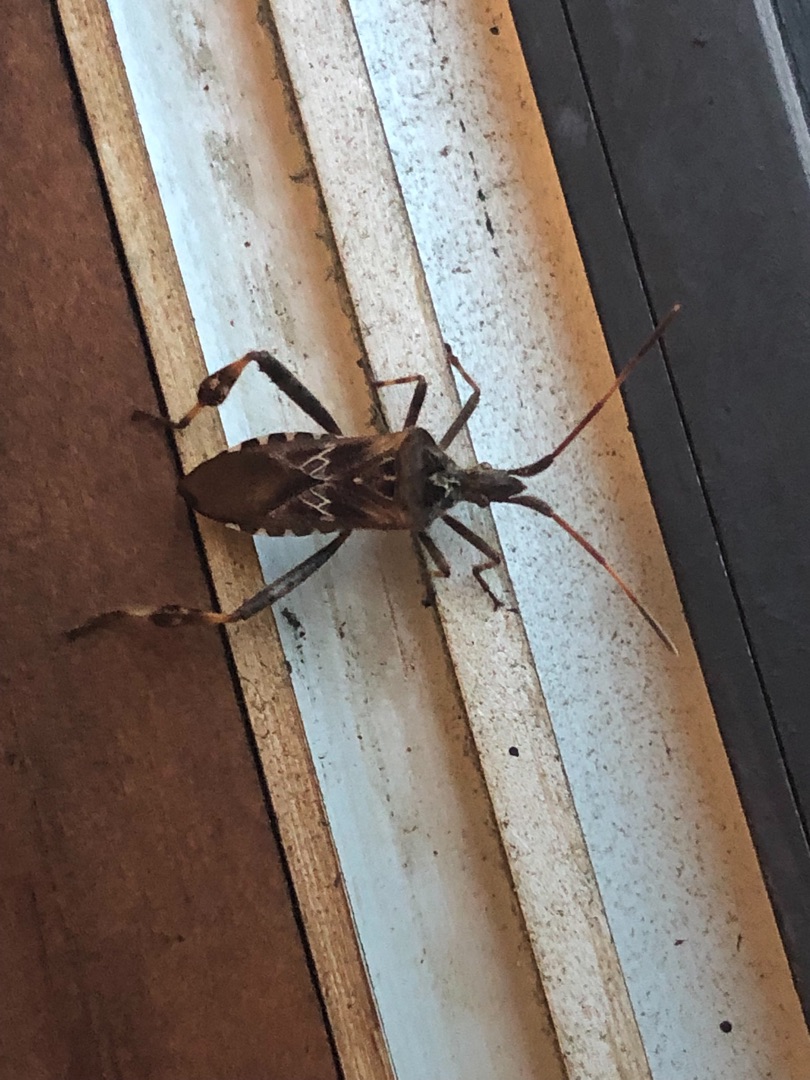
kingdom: Animalia
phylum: Arthropoda
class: Insecta
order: Hemiptera
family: Coreidae
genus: Leptoglossus
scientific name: Leptoglossus occidentalis
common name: Amerikansk fyrretæge
